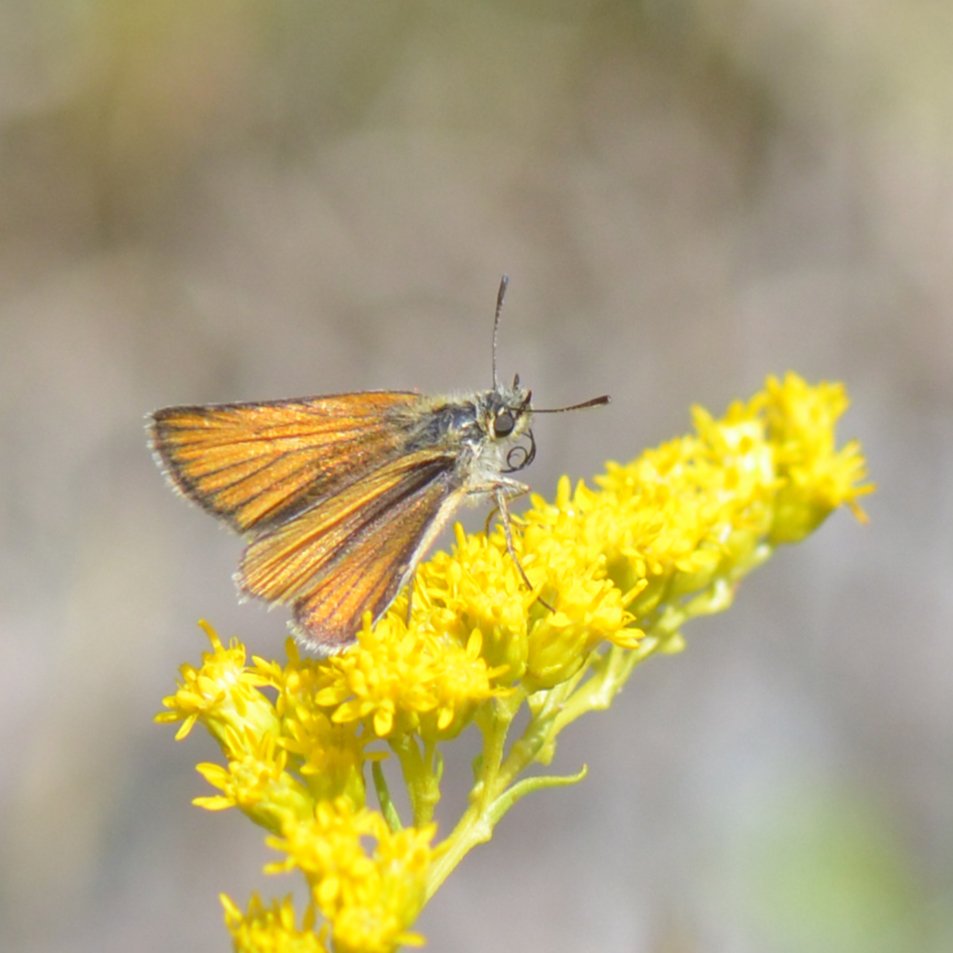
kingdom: Animalia
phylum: Arthropoda
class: Insecta
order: Lepidoptera
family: Hesperiidae
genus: Thymelicus
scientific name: Thymelicus lineola
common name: European Skipper
